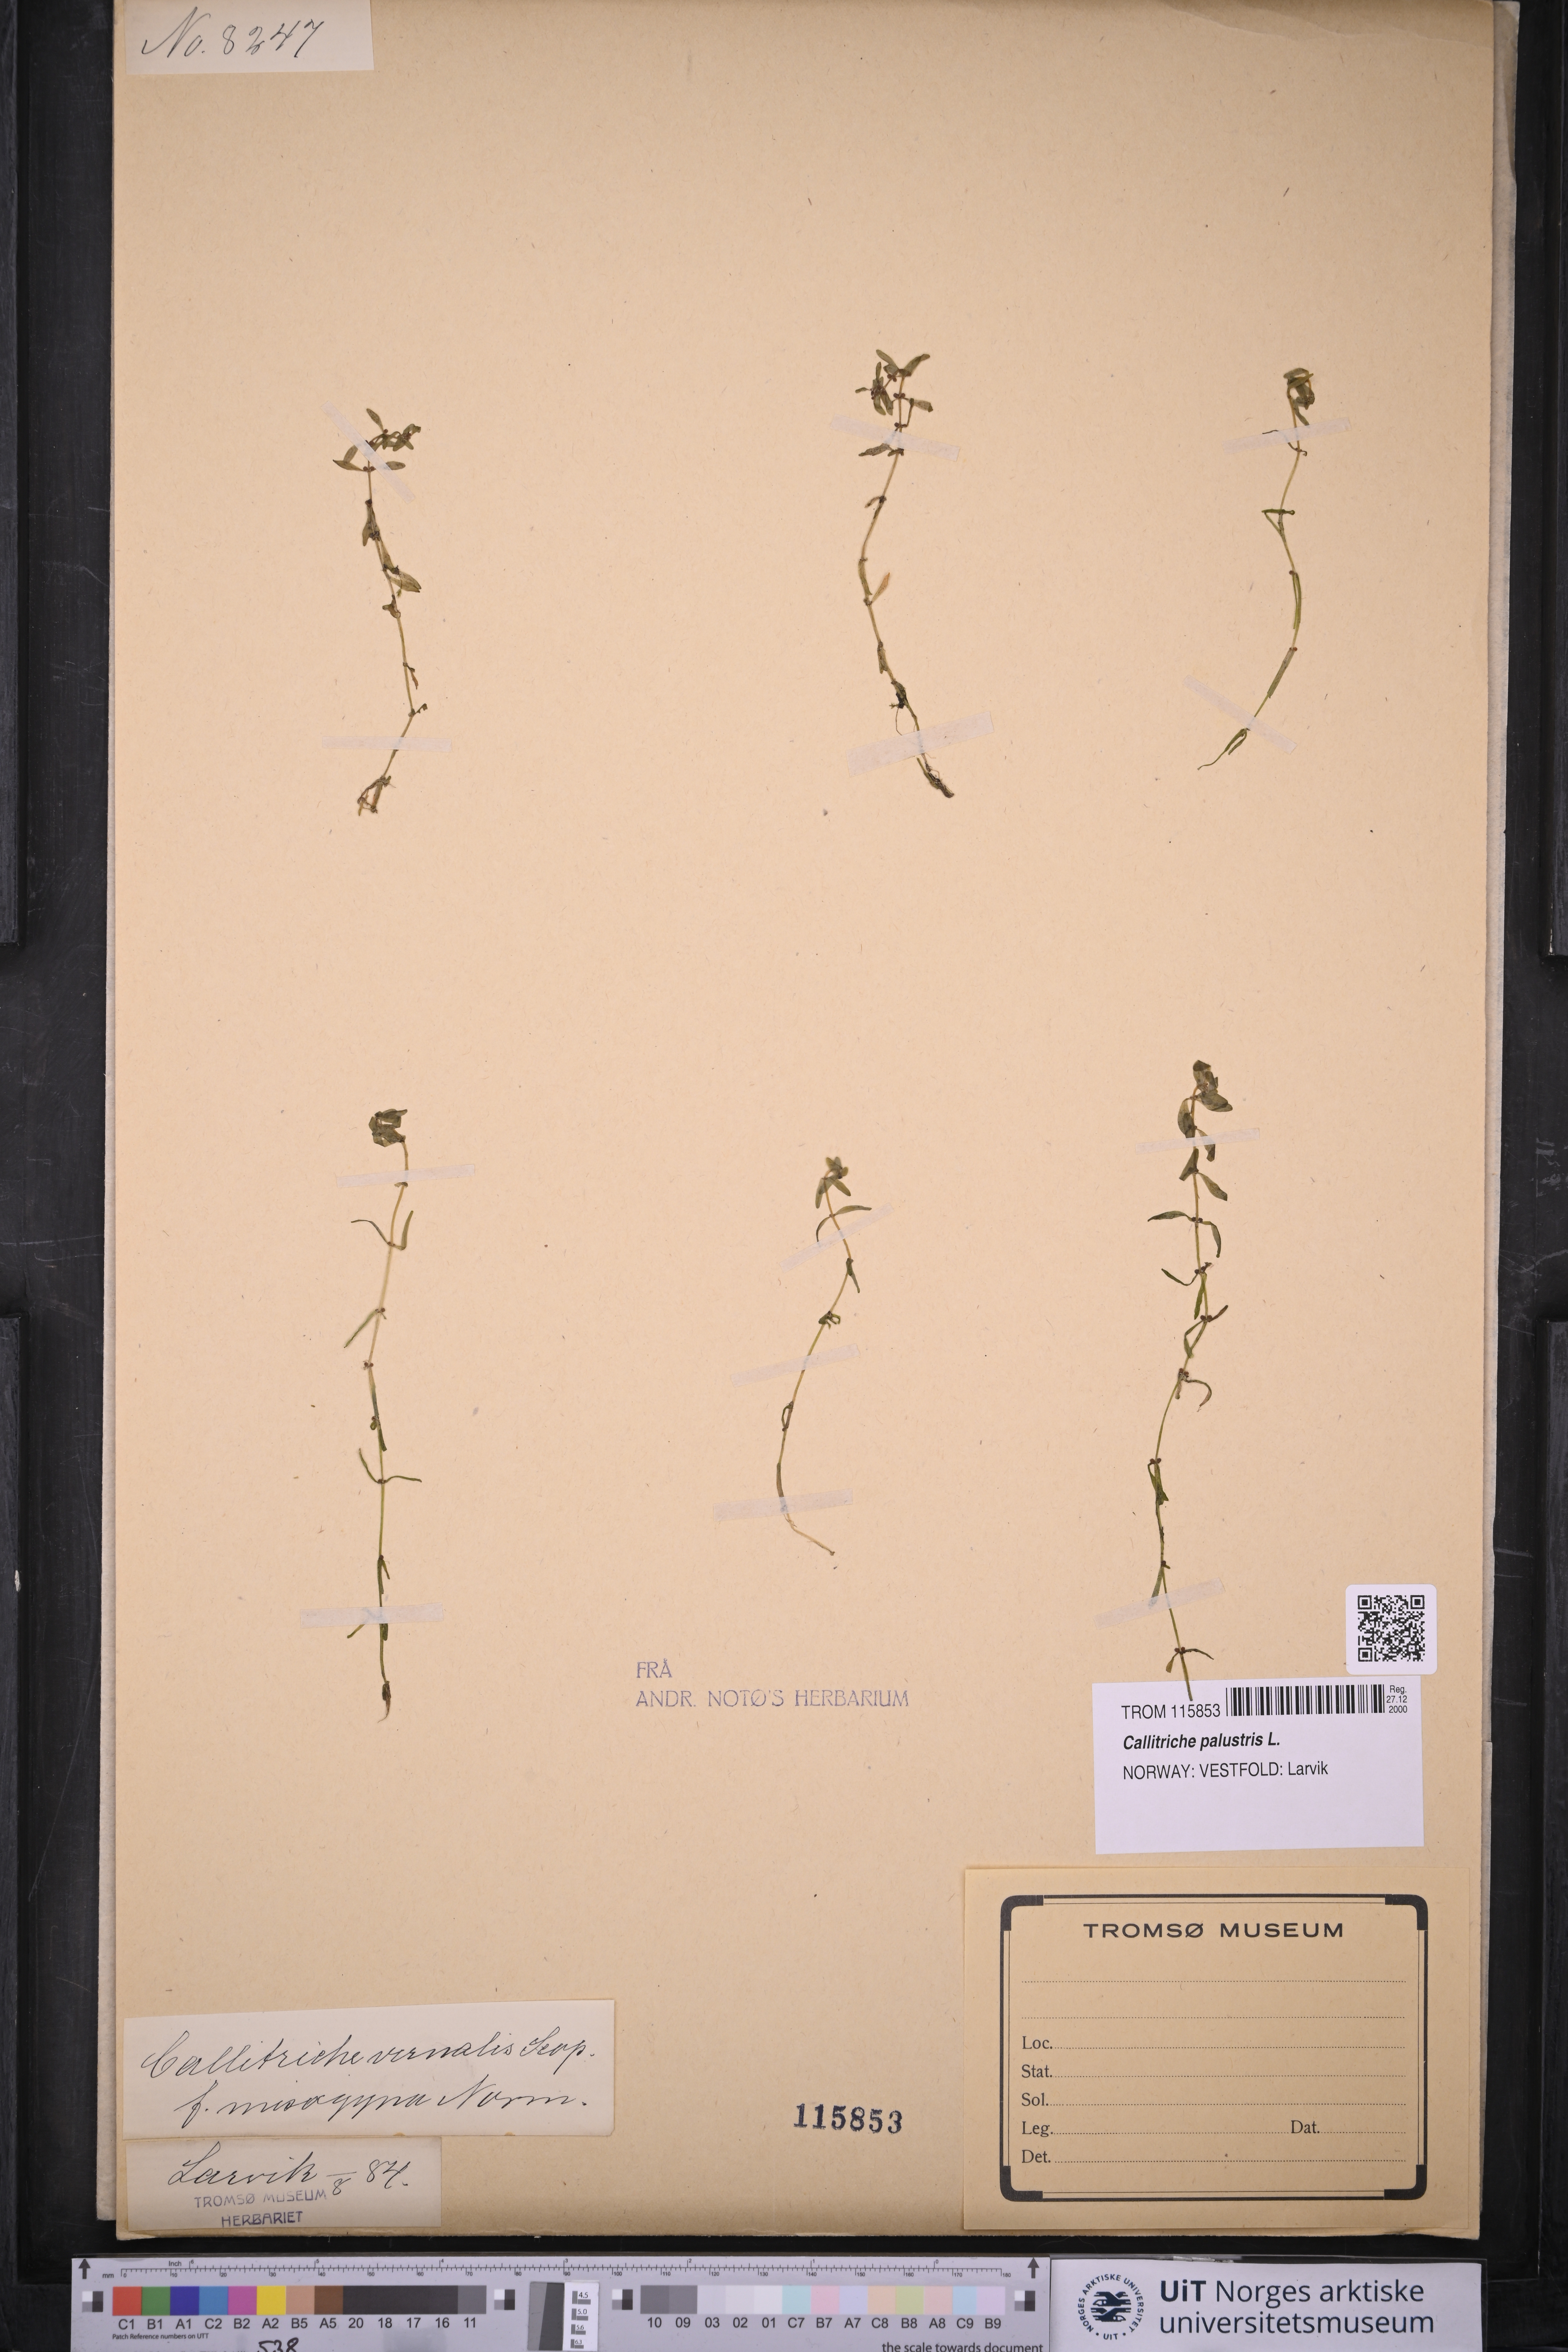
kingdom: Plantae
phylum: Tracheophyta
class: Magnoliopsida
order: Lamiales
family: Plantaginaceae
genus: Callitriche
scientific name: Callitriche palustris
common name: Spring water-starwort
